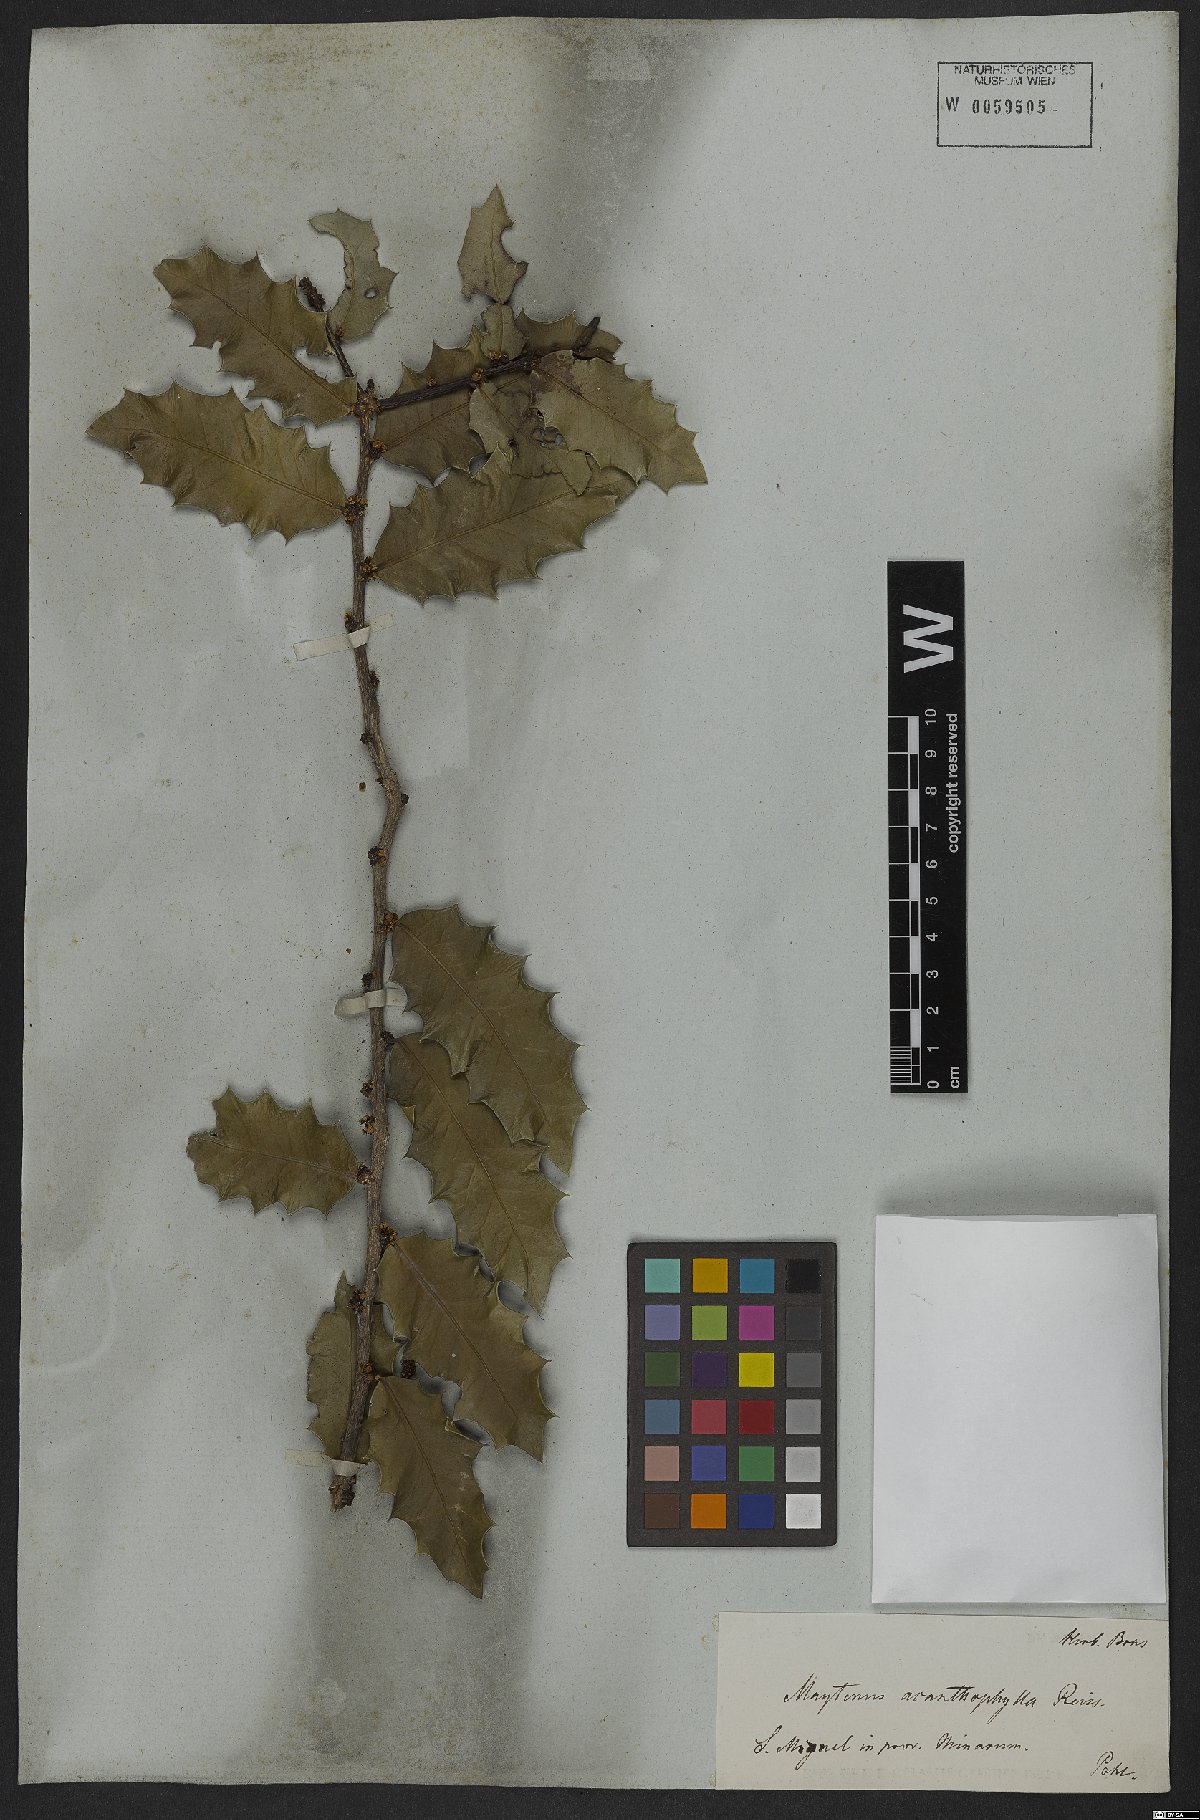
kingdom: Plantae
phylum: Tracheophyta
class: Magnoliopsida
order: Celastrales
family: Celastraceae
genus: Monteverdia
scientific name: Monteverdia acanthophylla
